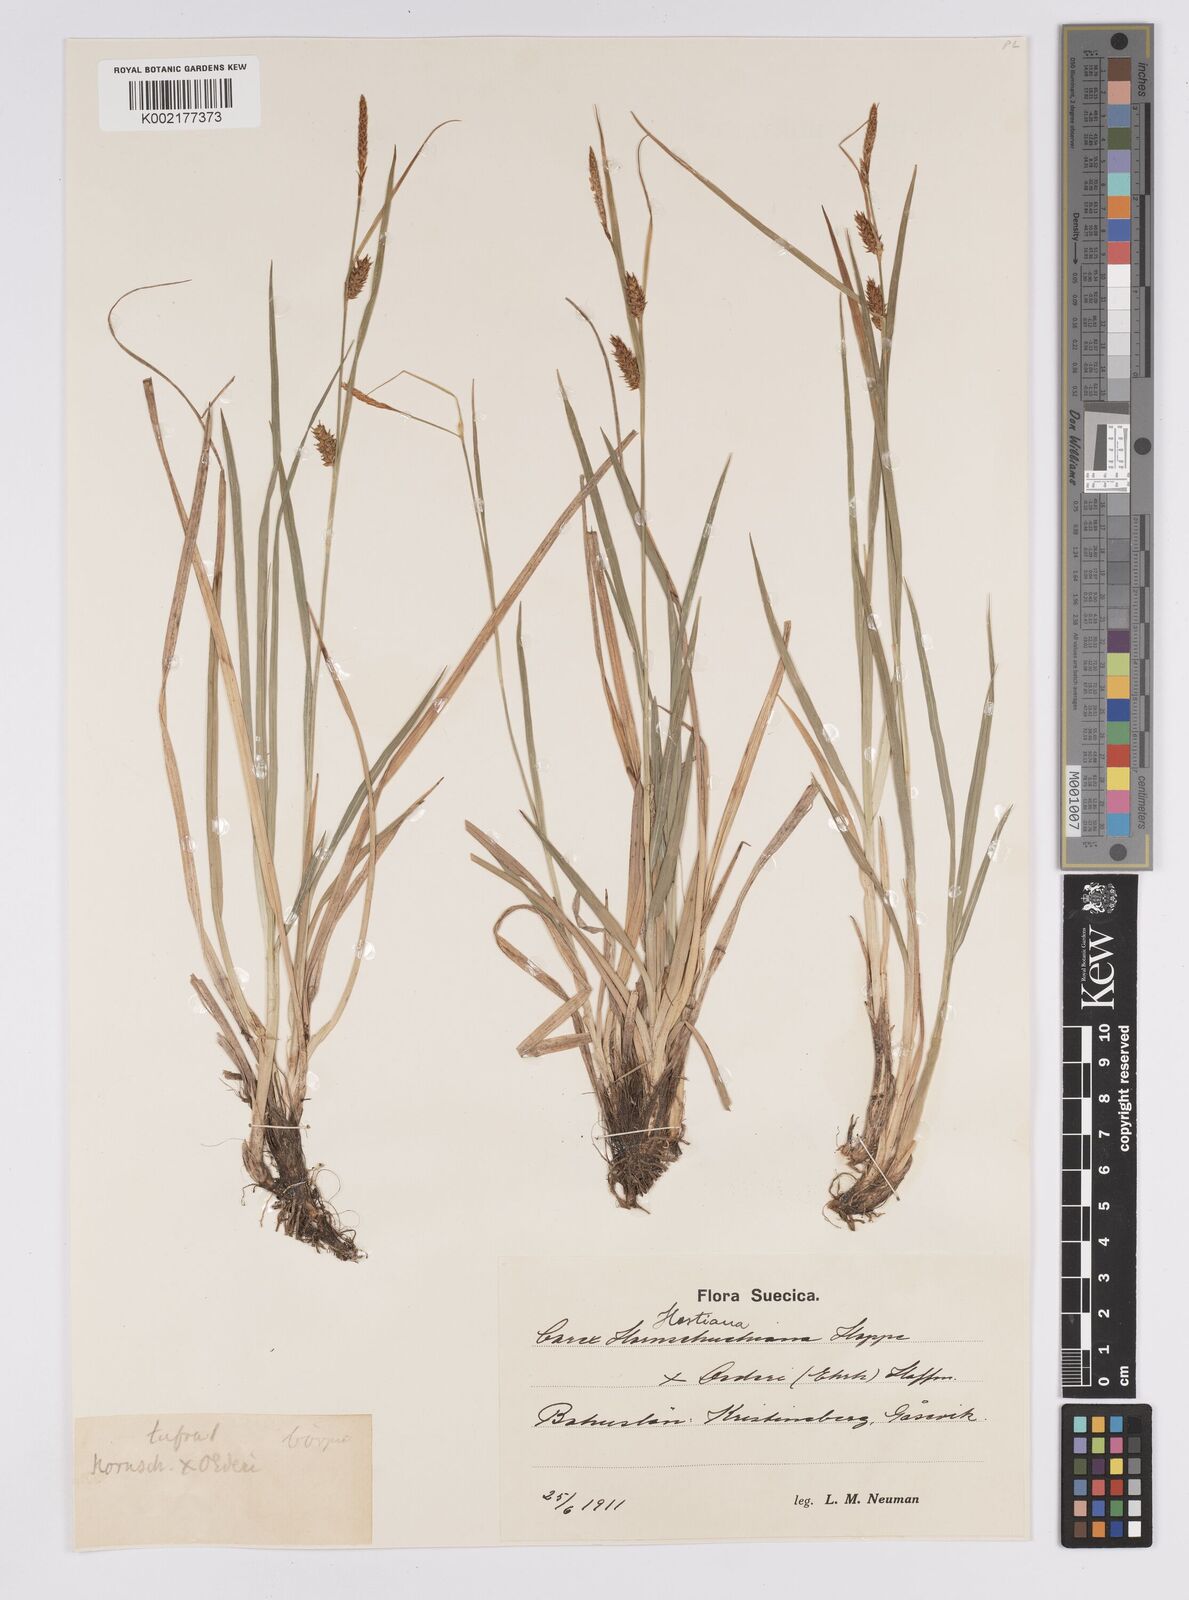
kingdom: Plantae
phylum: Tracheophyta
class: Liliopsida
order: Poales
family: Cyperaceae
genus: Carex
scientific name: Carex hostiana
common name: Tawny sedge
